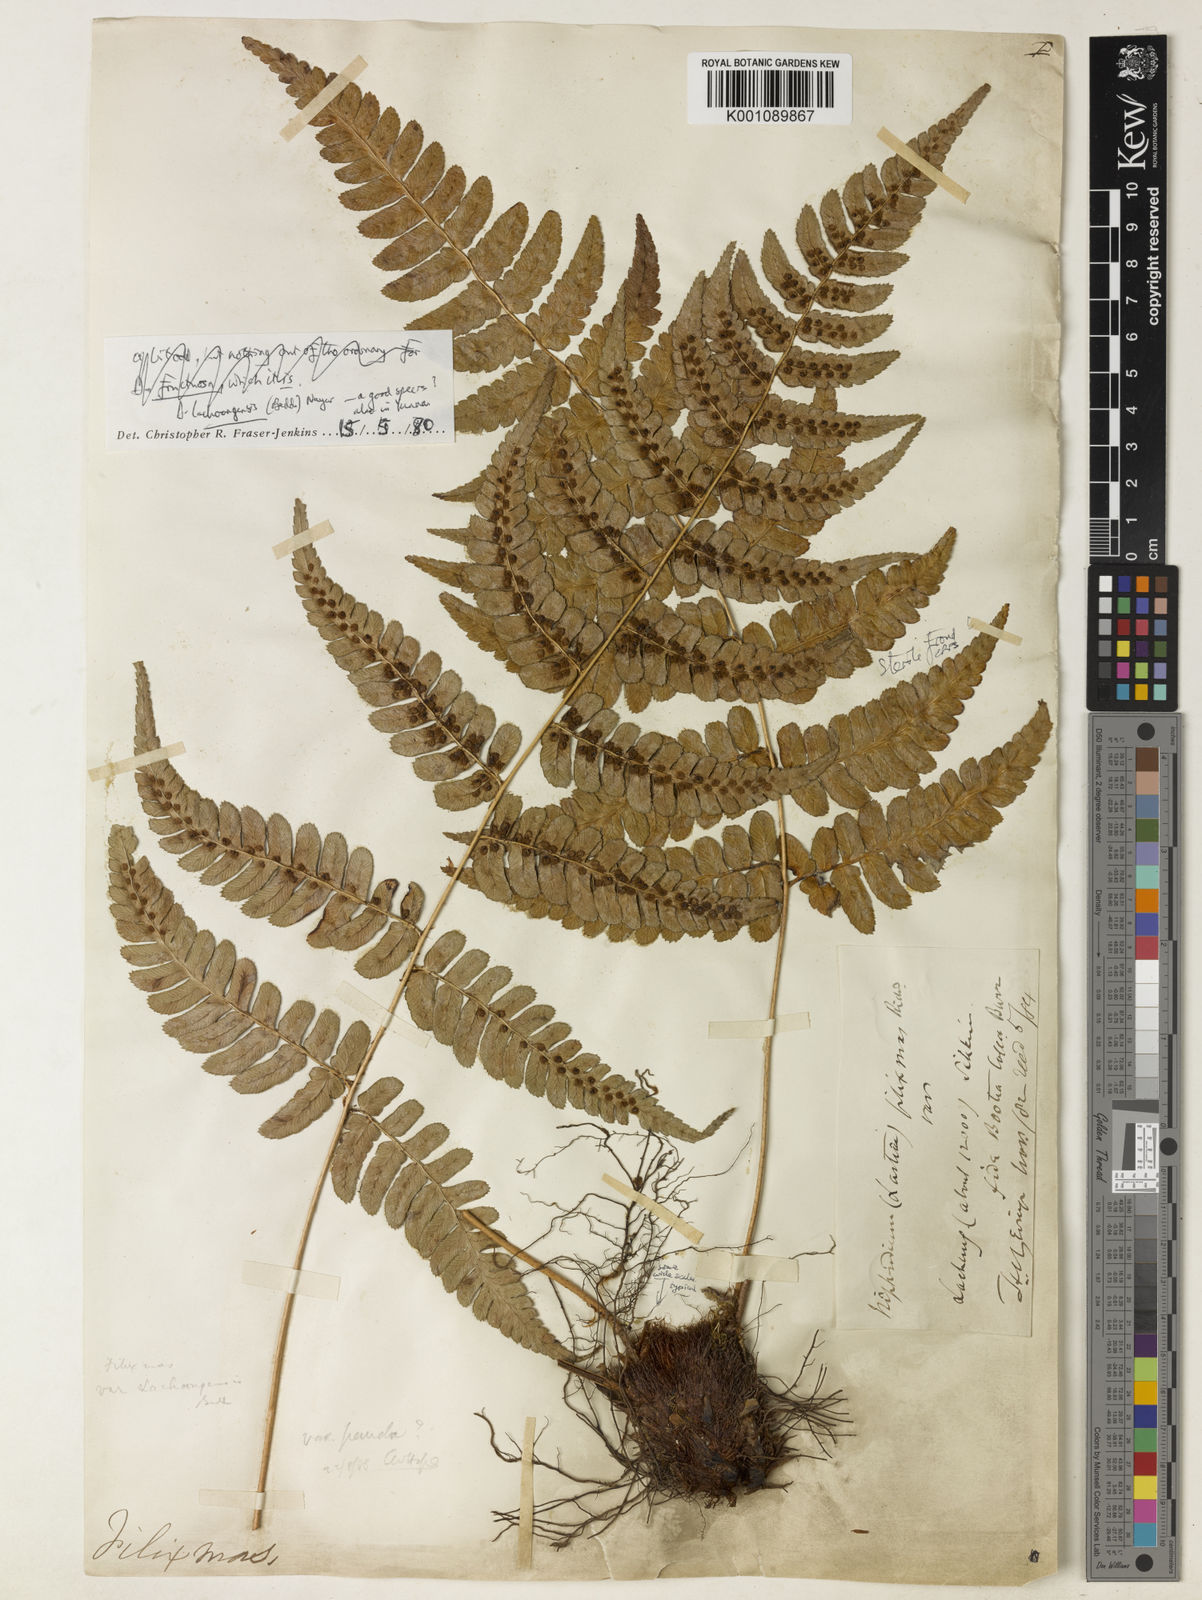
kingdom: Plantae
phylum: Tracheophyta
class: Polypodiopsida
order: Polypodiales
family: Dryopteridaceae
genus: Dryopteris
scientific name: Dryopteris lachoongensis
